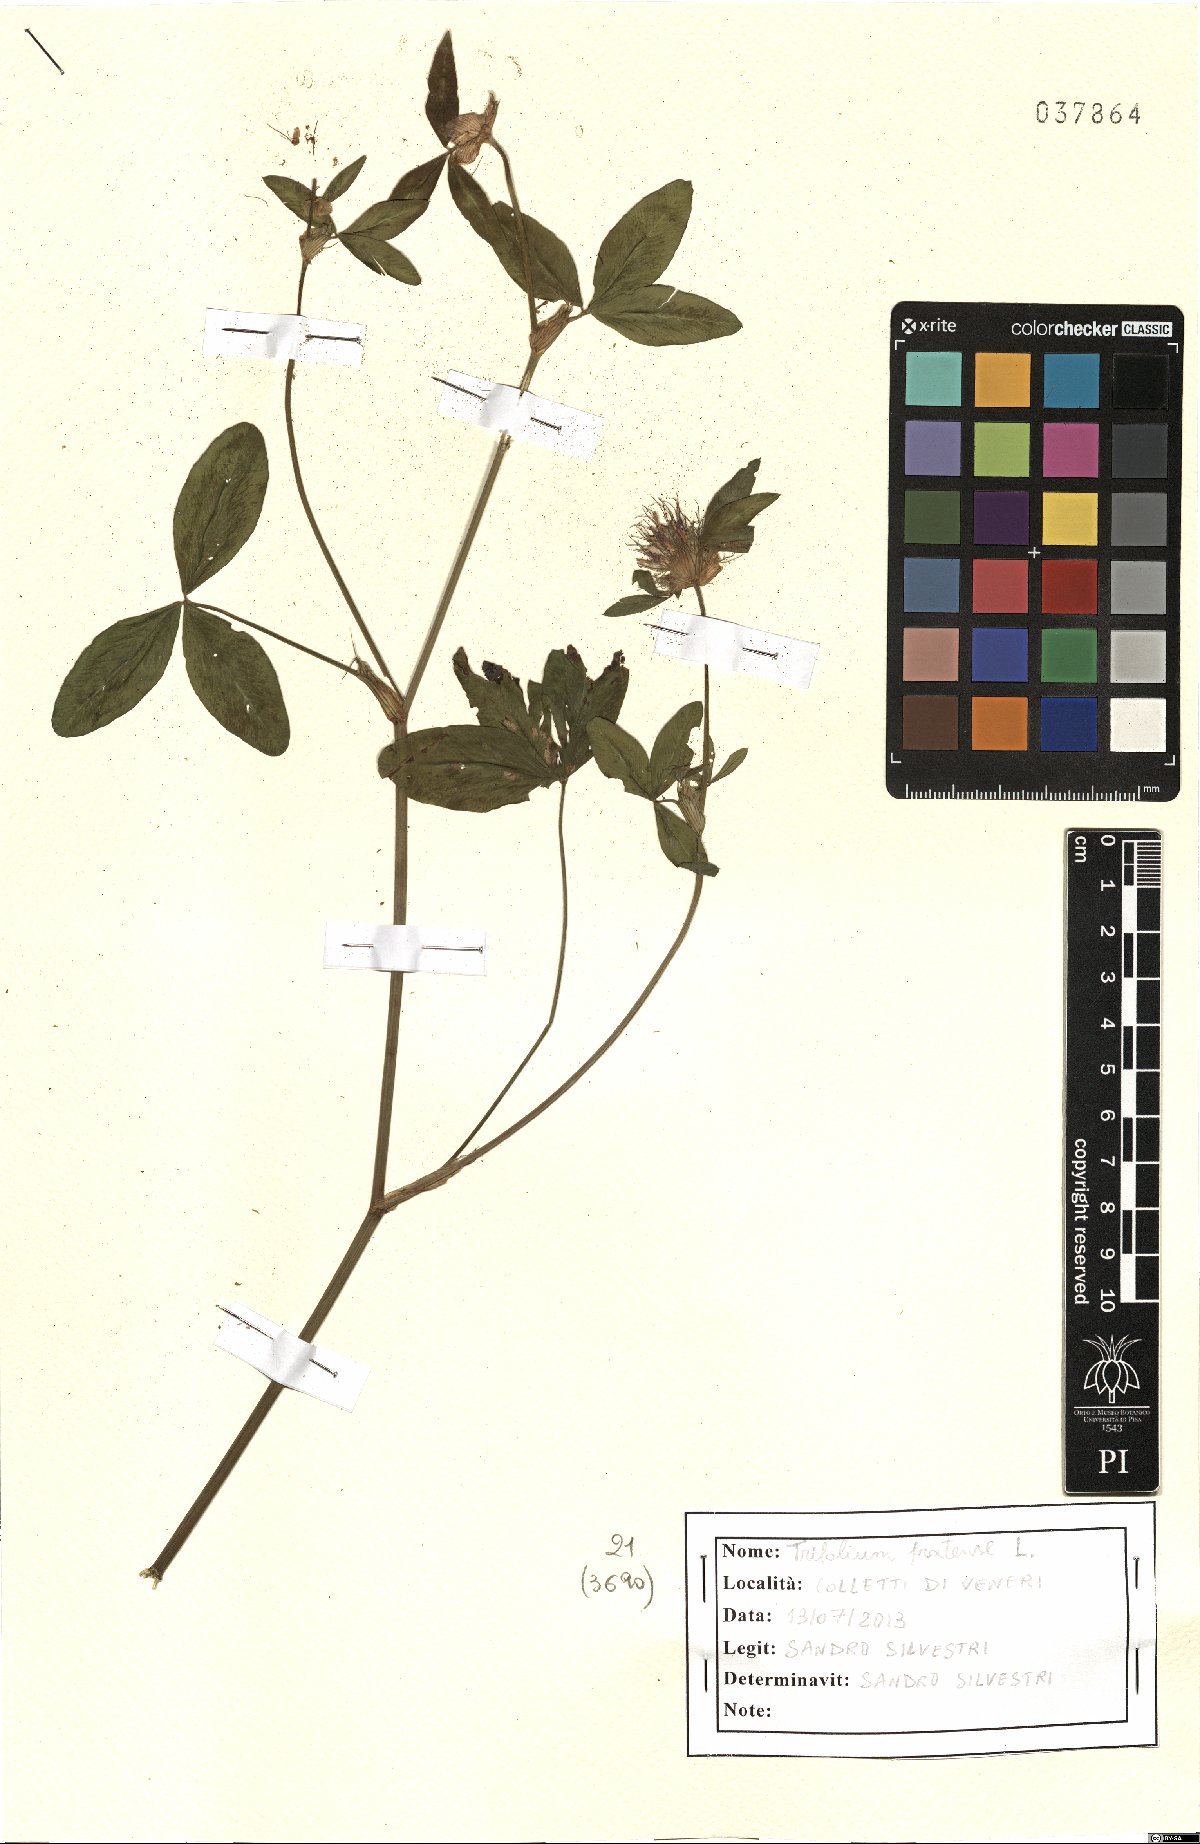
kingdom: Plantae
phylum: Tracheophyta
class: Magnoliopsida
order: Fabales
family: Fabaceae
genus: Trifolium
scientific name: Trifolium pratense
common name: Red clover
